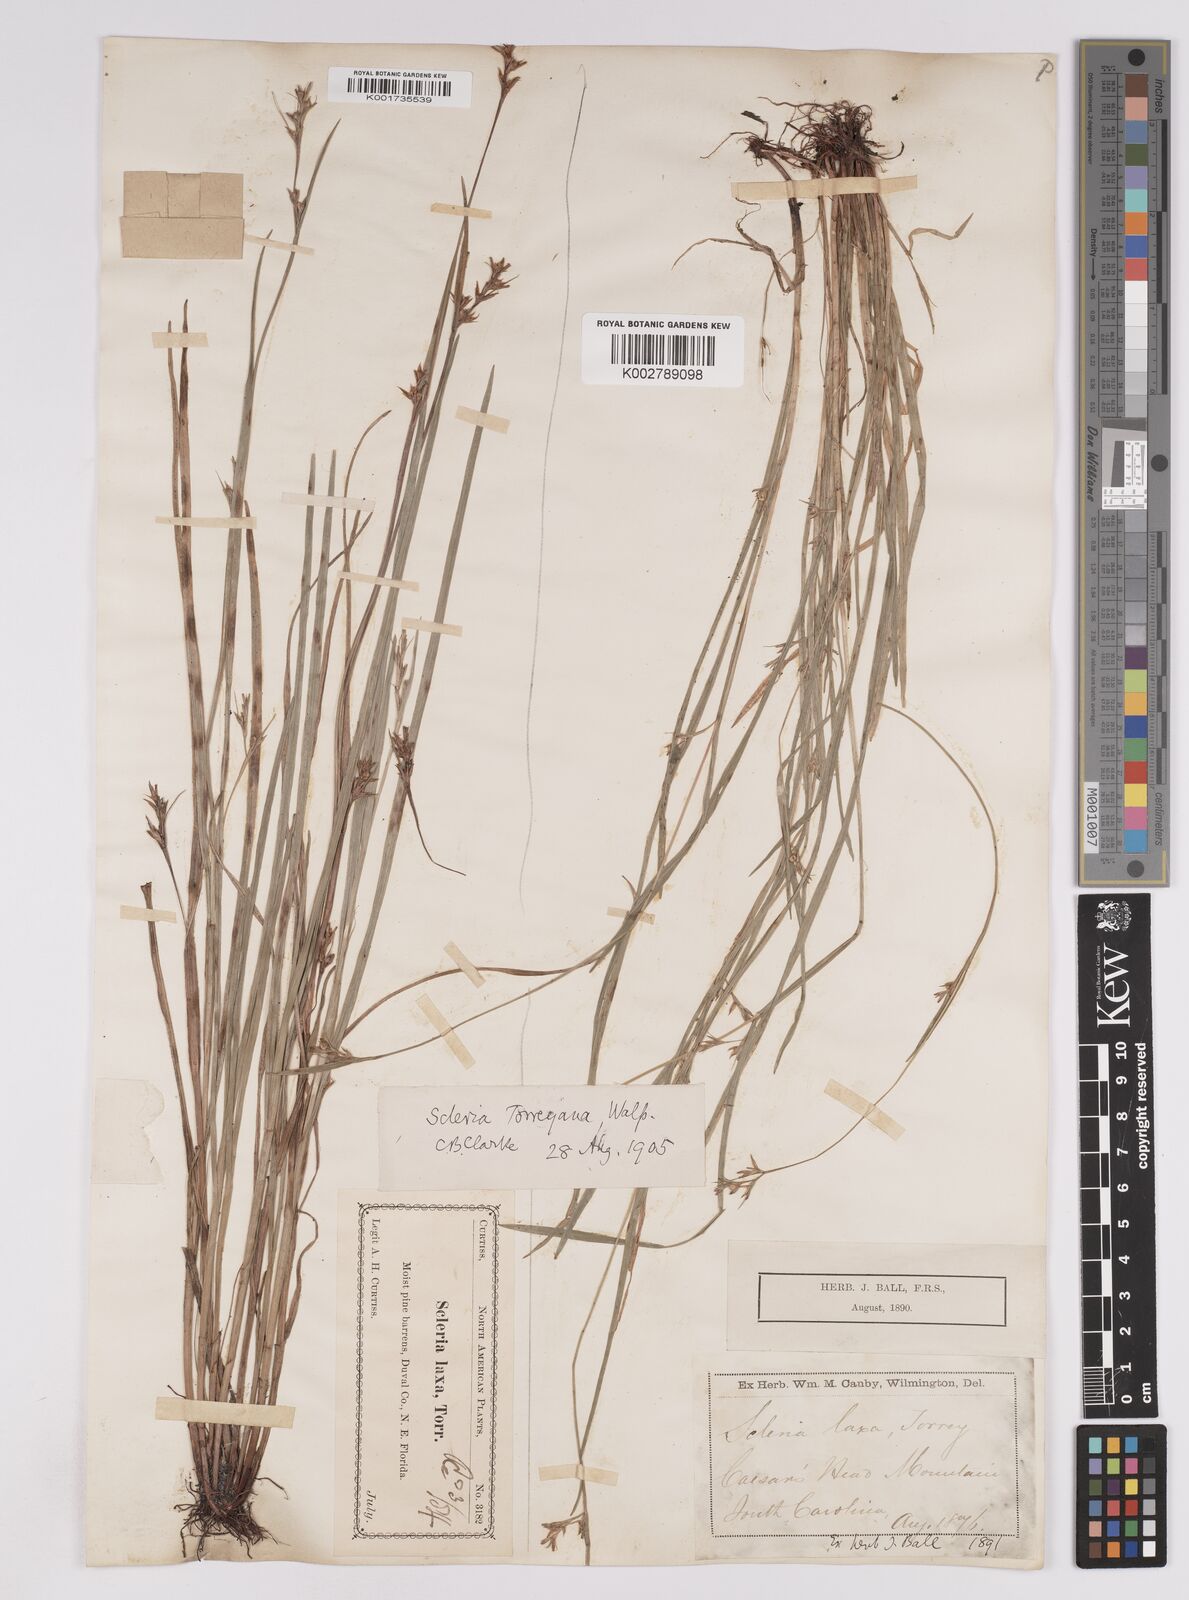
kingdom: Plantae
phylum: Tracheophyta
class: Liliopsida
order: Poales
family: Cyperaceae
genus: Scleria
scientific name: Scleria muehlenbergii
